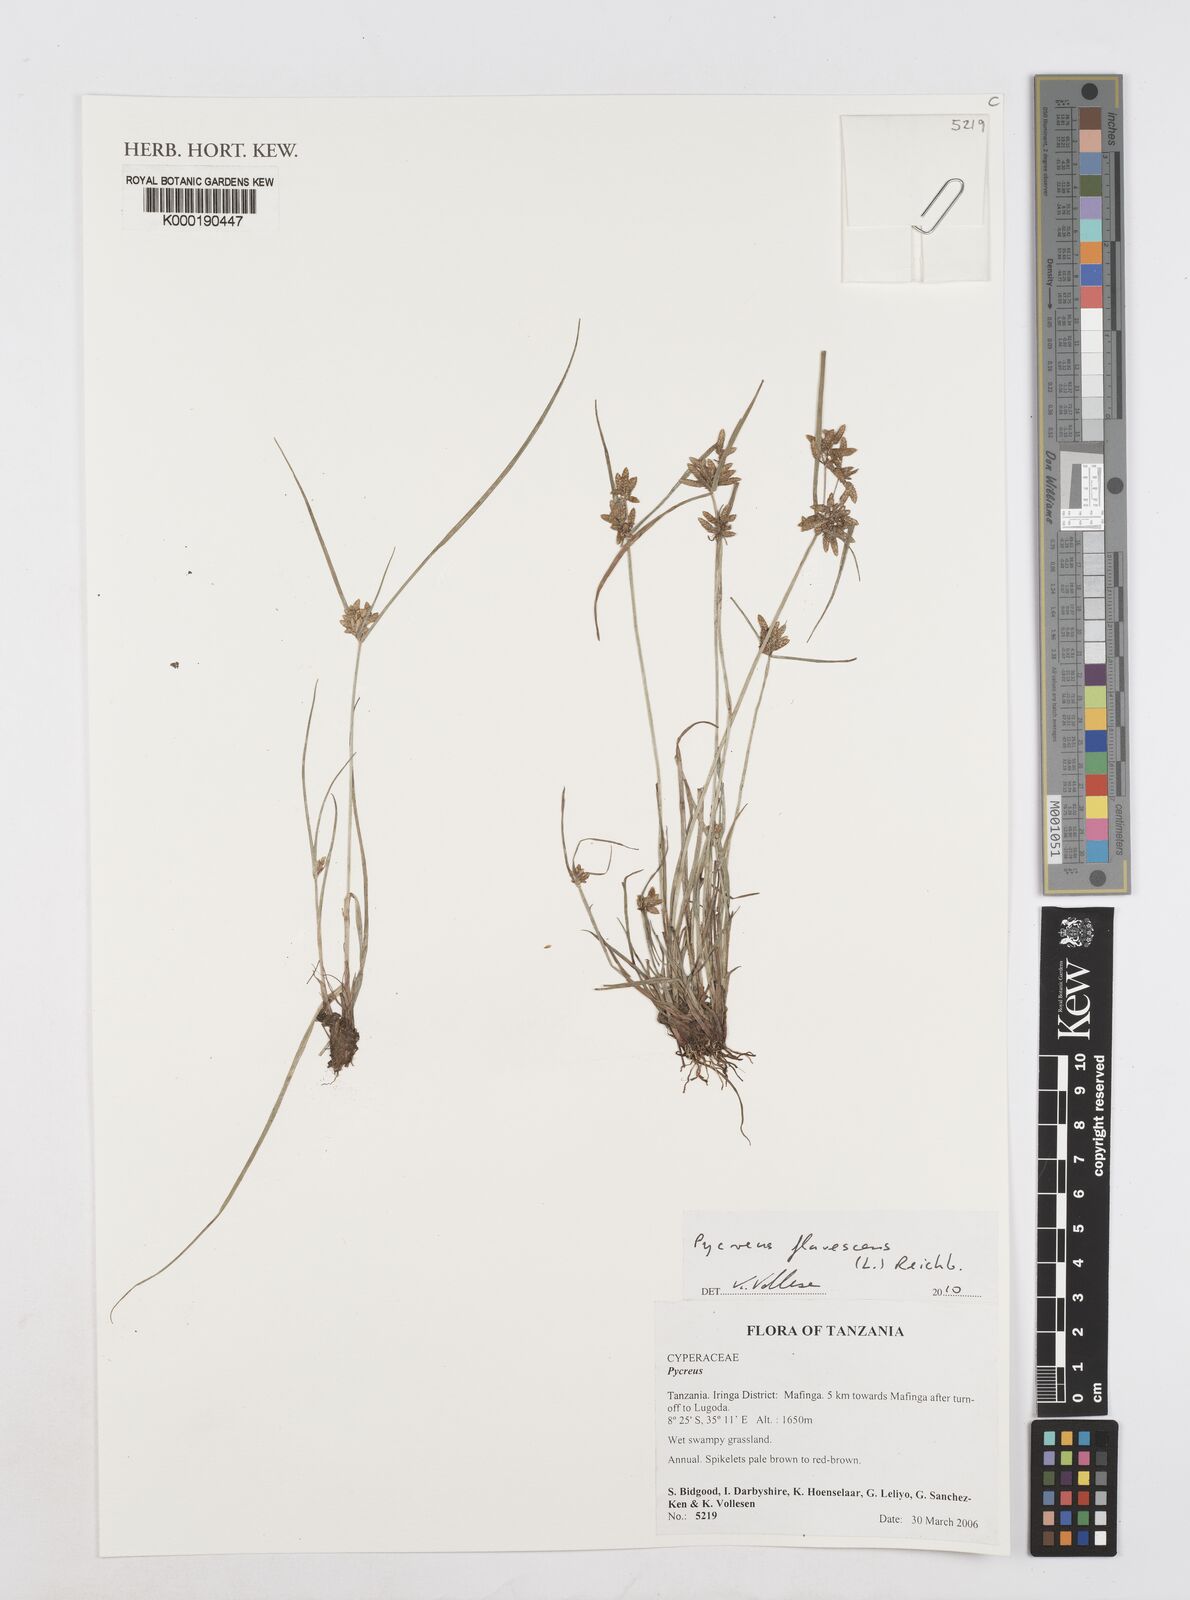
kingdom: Plantae
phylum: Tracheophyta
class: Liliopsida
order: Poales
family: Cyperaceae
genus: Cyperus
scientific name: Cyperus
